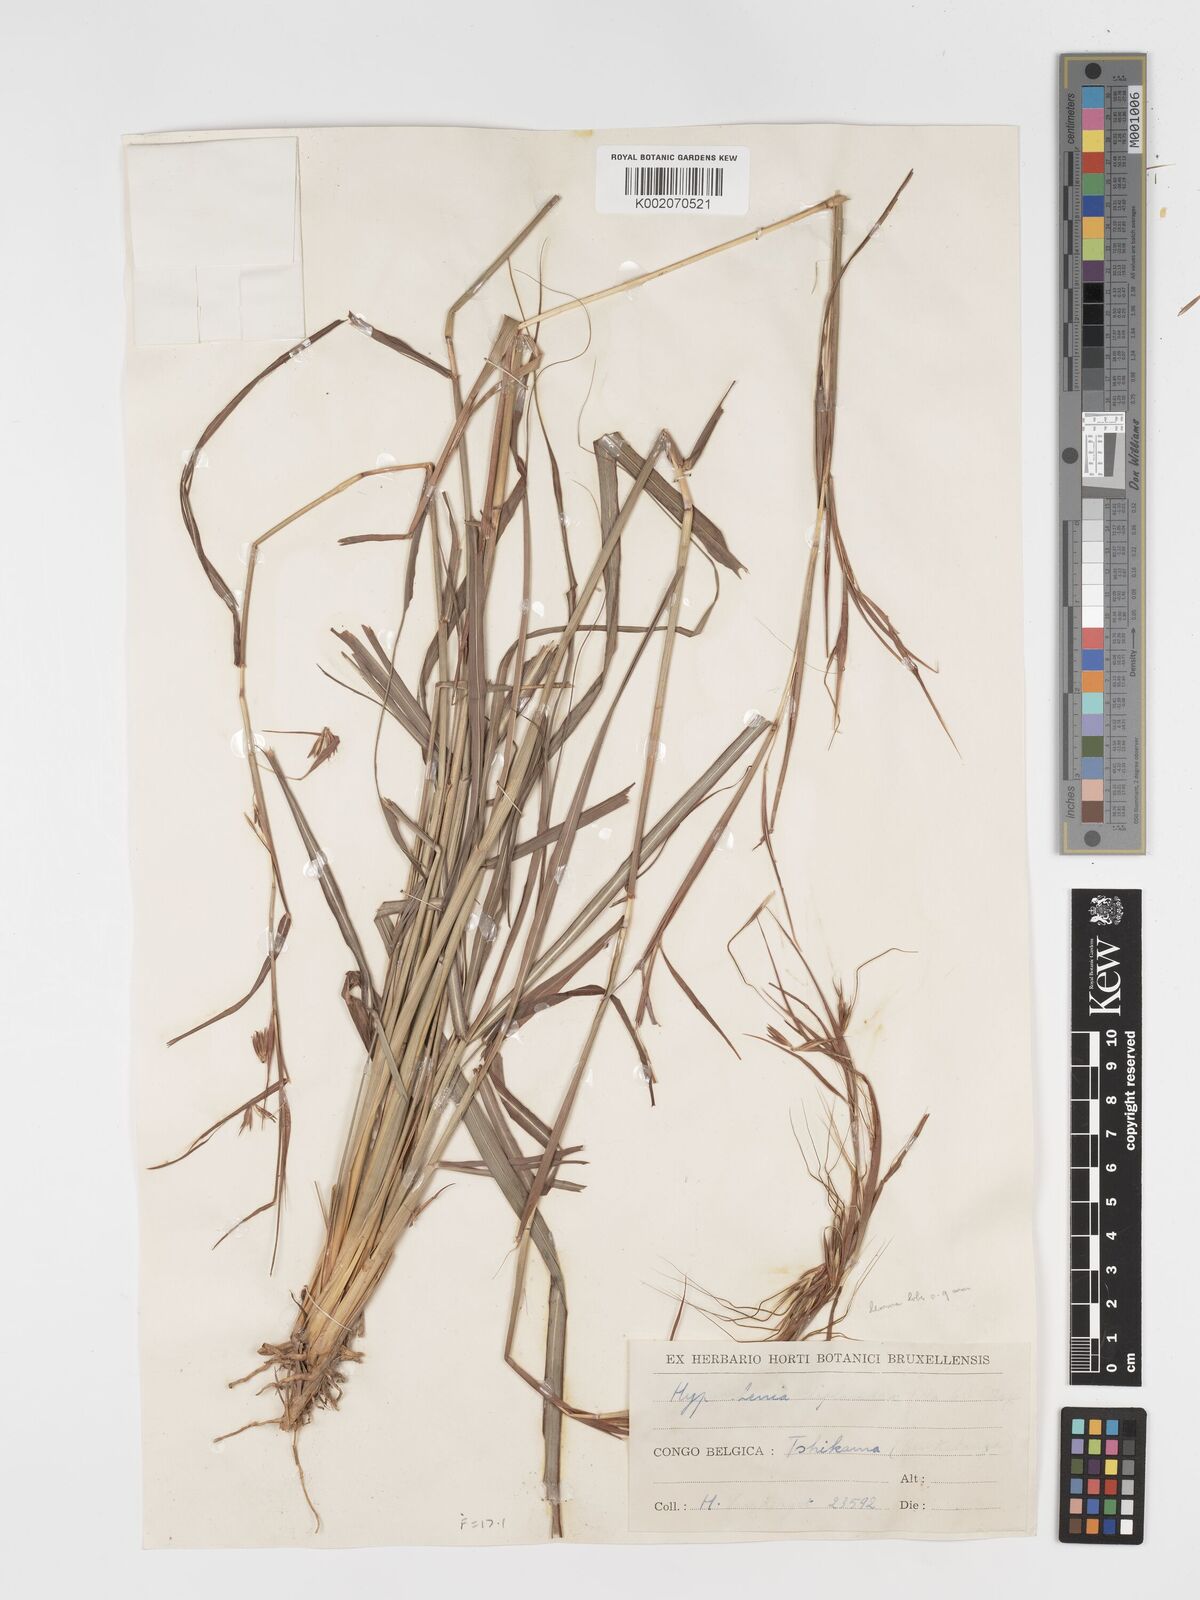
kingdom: Plantae
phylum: Tracheophyta
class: Liliopsida
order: Poales
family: Poaceae
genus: Hyparrhenia
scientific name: Hyparrhenia diplandra
